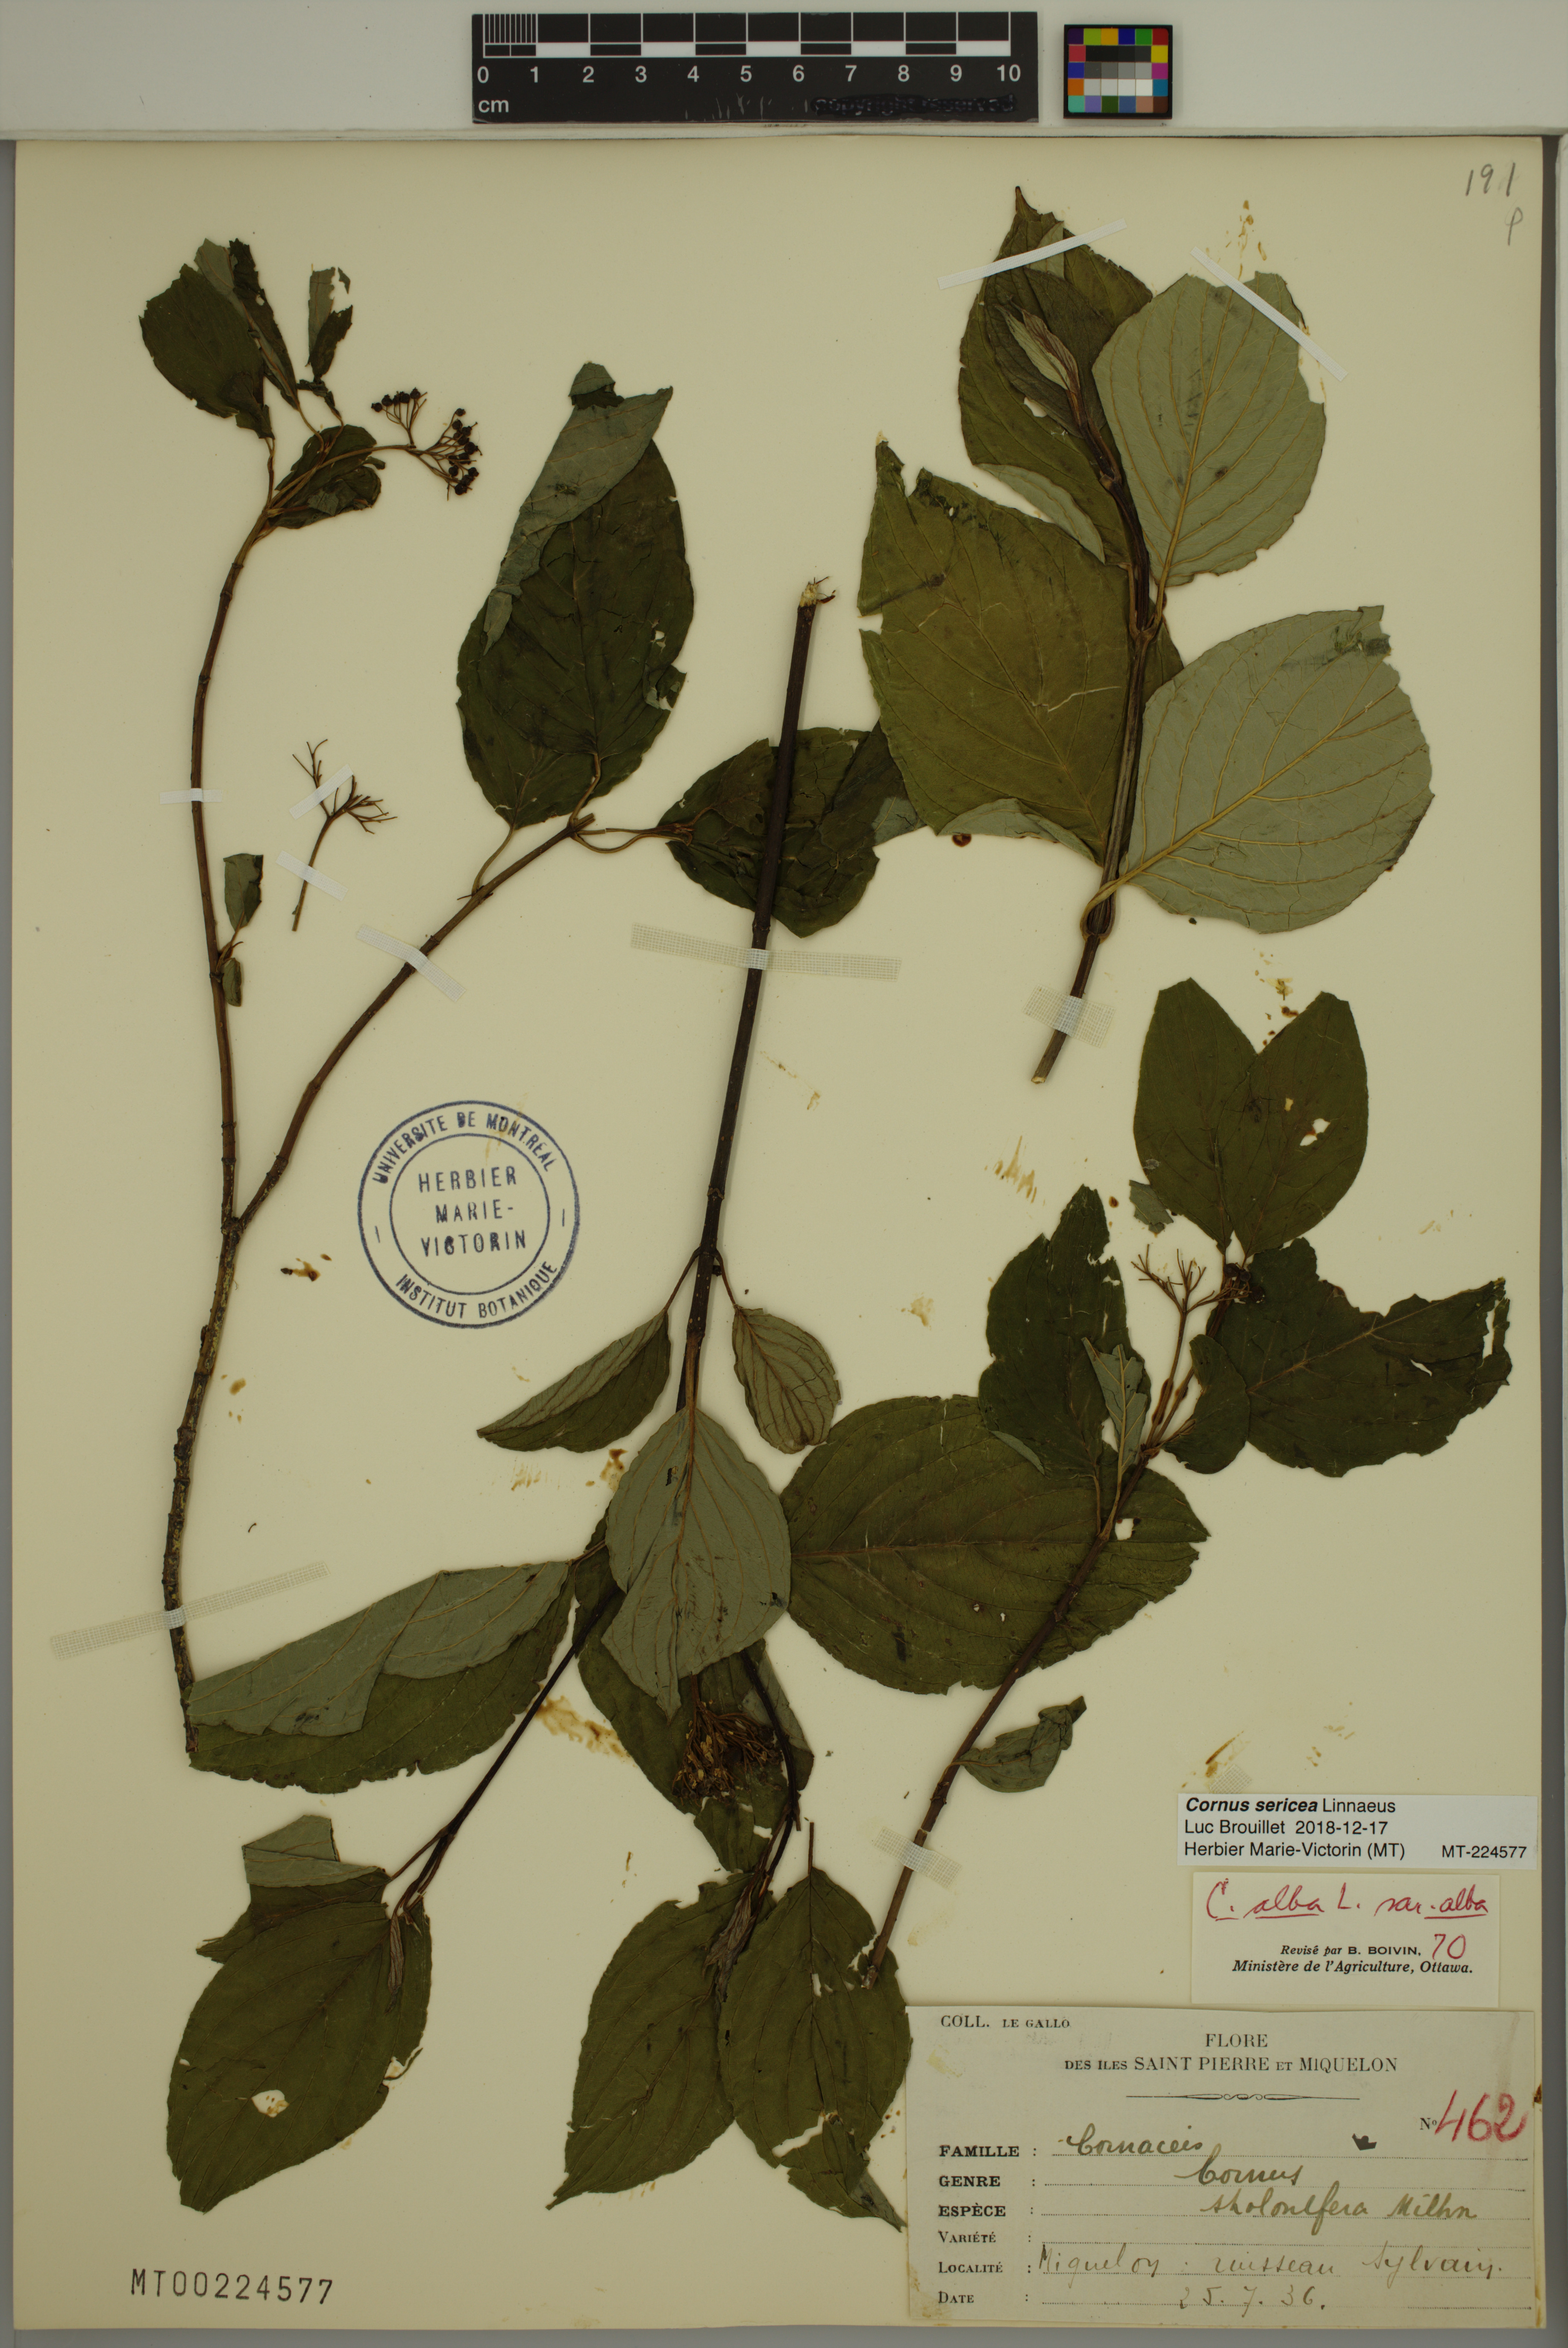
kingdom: Plantae
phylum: Tracheophyta
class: Magnoliopsida
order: Cornales
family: Cornaceae
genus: Cornus
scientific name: Cornus sericea
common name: Red-osier dogwood
